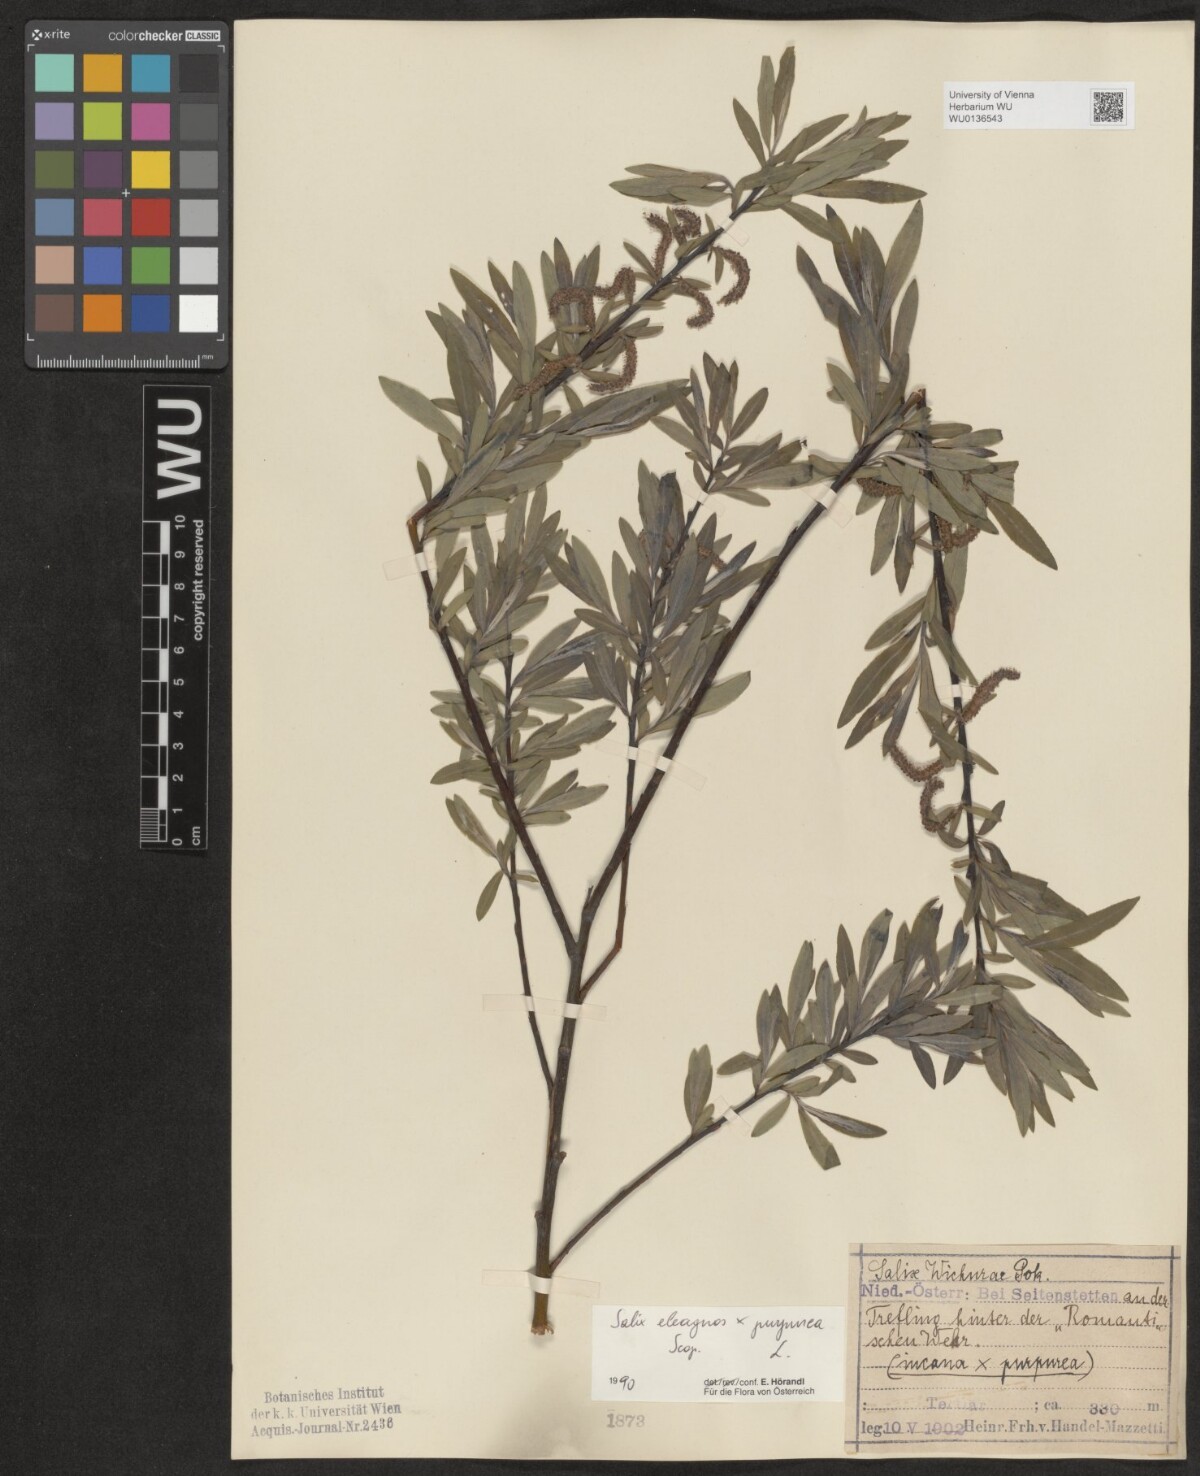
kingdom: Plantae
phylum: Tracheophyta
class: Magnoliopsida
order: Malpighiales
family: Salicaceae
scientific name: Salicaceae
